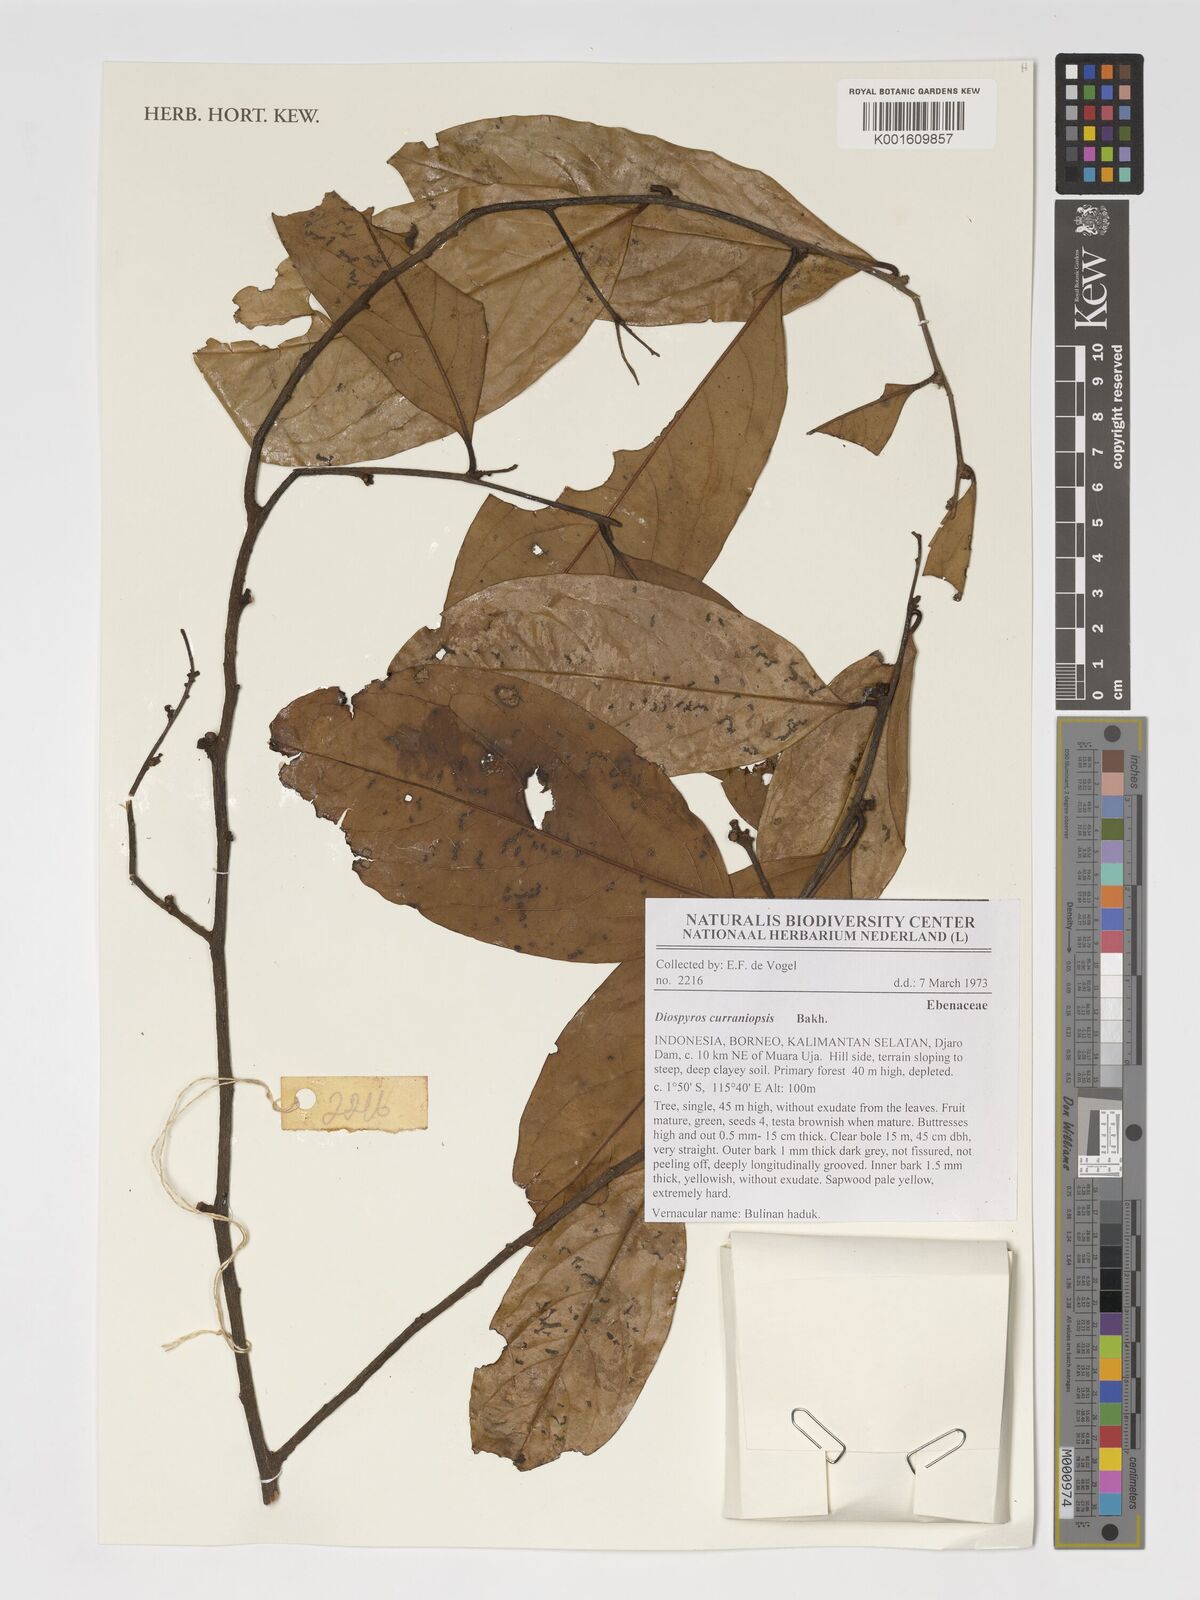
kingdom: Plantae
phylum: Tracheophyta
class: Magnoliopsida
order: Ericales
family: Ebenaceae
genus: Diospyros
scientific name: Diospyros curranii
